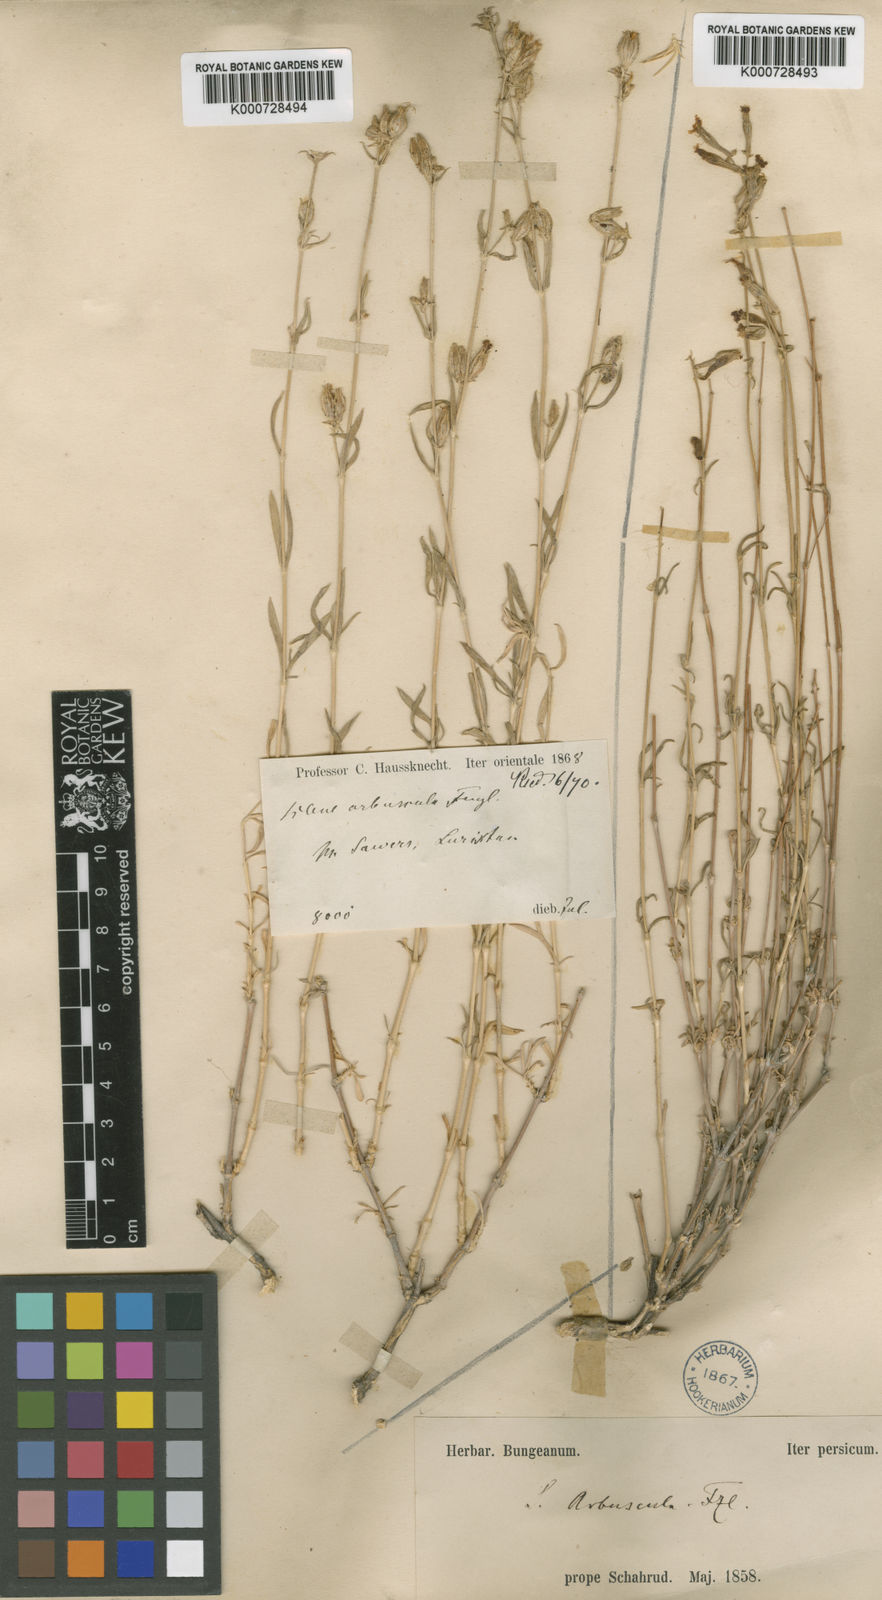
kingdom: Plantae
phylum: Tracheophyta
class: Magnoliopsida
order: Caryophyllales
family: Caryophyllaceae
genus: Silene
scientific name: Silene spergulifolia
